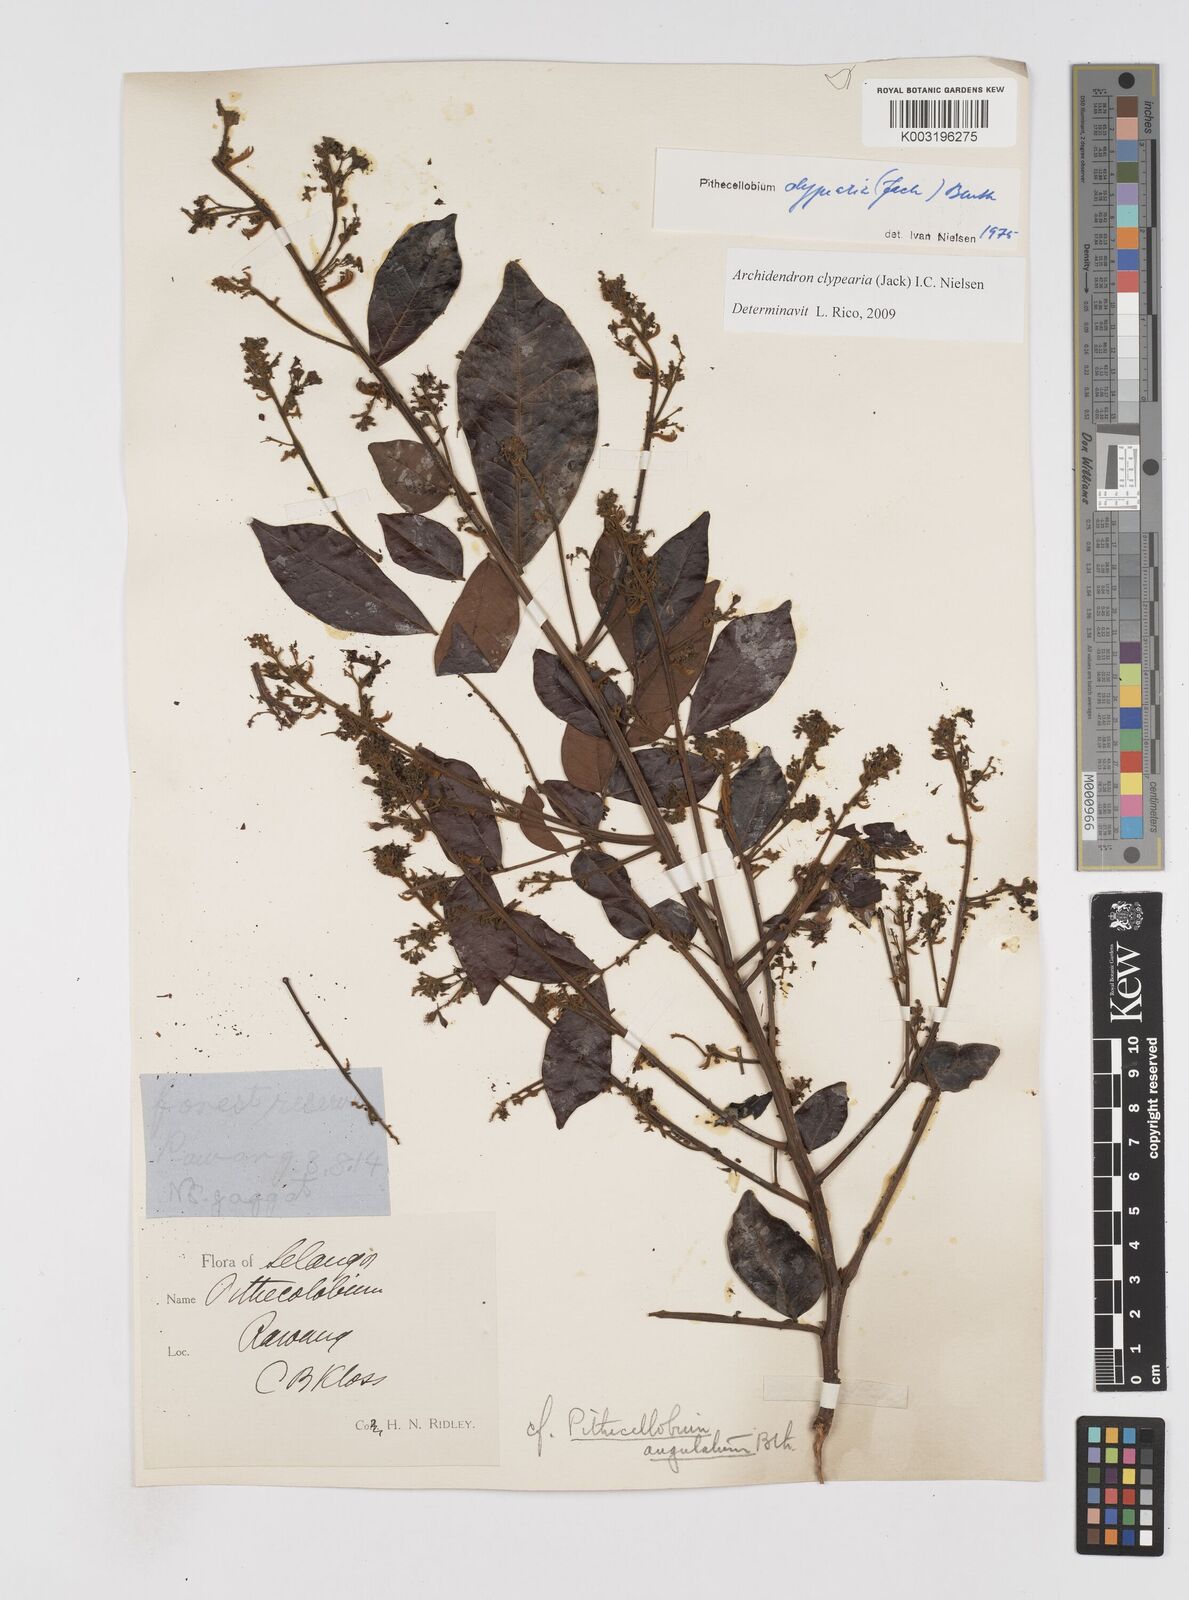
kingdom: Plantae
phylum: Tracheophyta
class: Magnoliopsida
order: Fabales
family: Fabaceae
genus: Archidendron
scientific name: Archidendron clypearia
